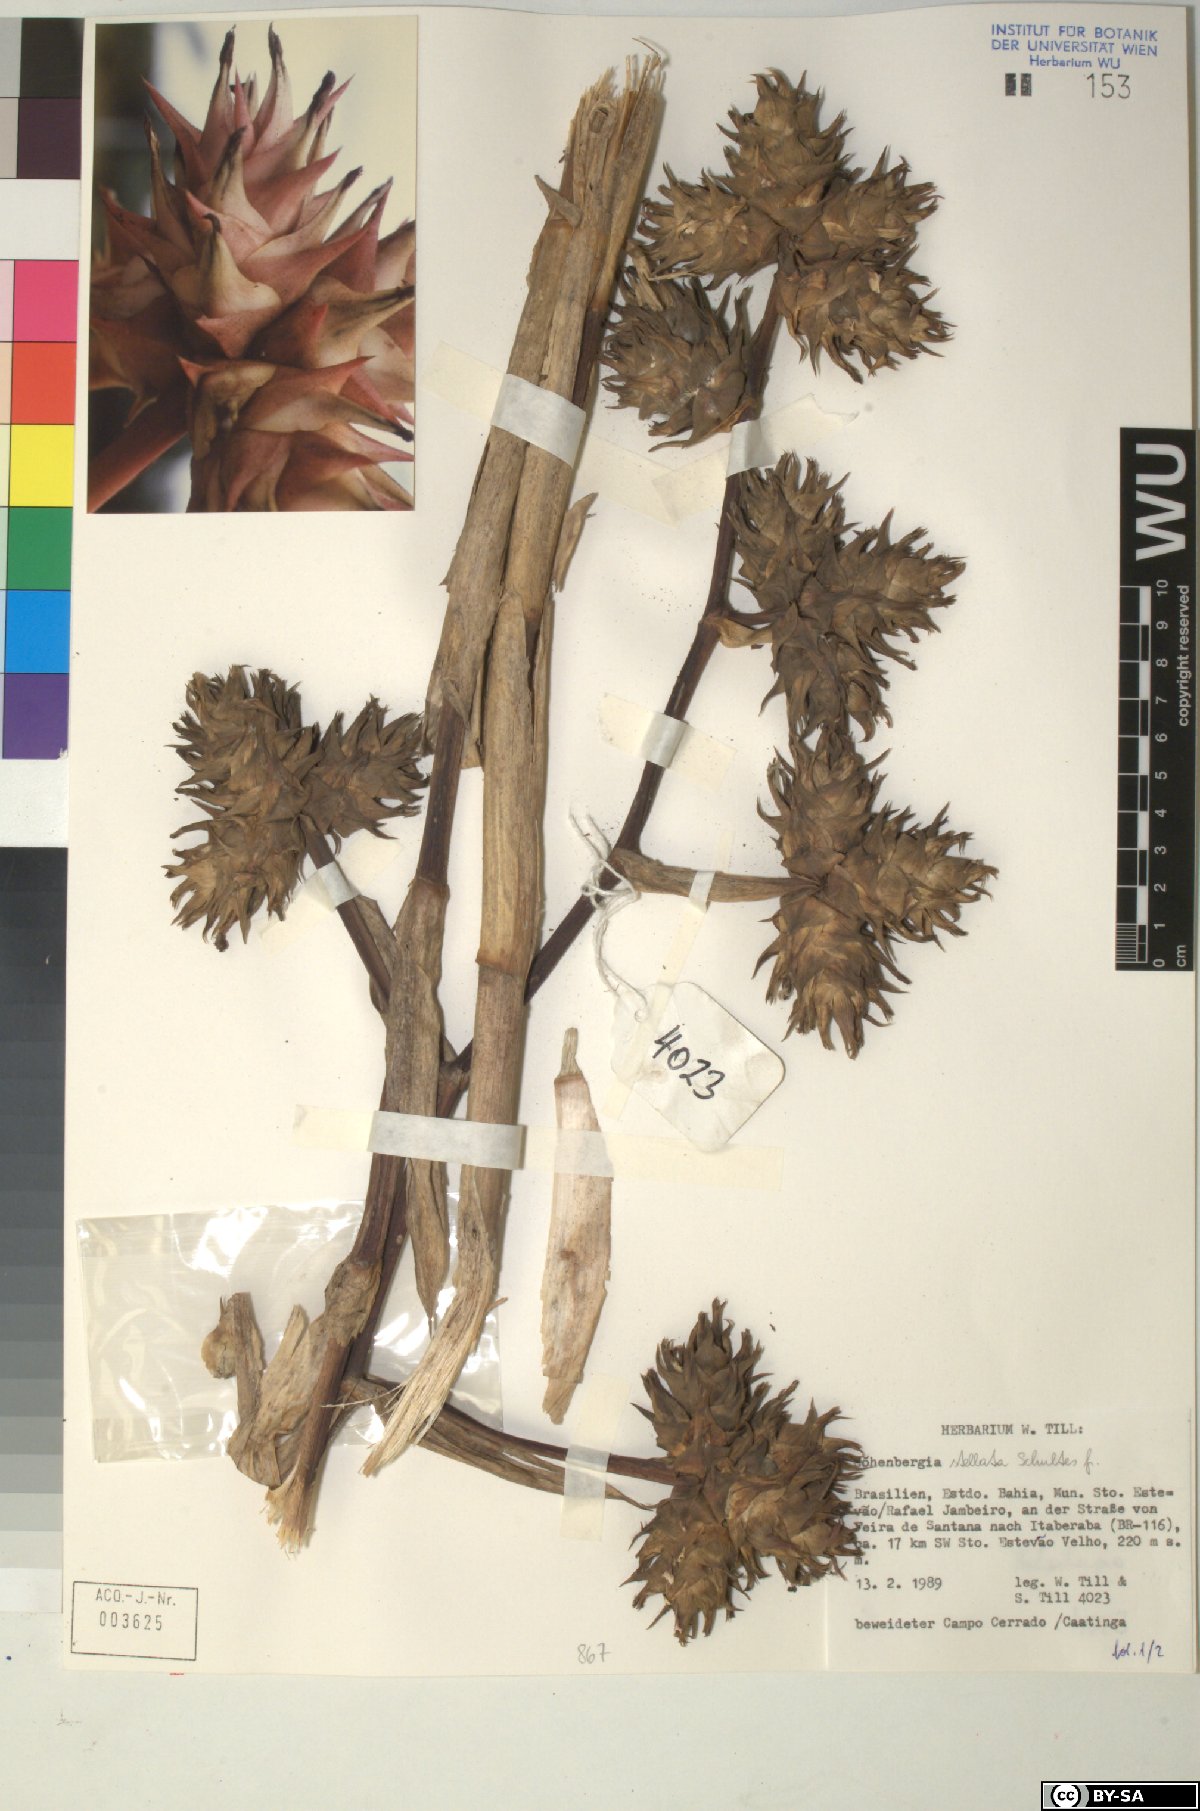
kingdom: Plantae
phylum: Tracheophyta
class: Liliopsida
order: Poales
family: Bromeliaceae
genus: Hohenbergia
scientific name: Hohenbergia
